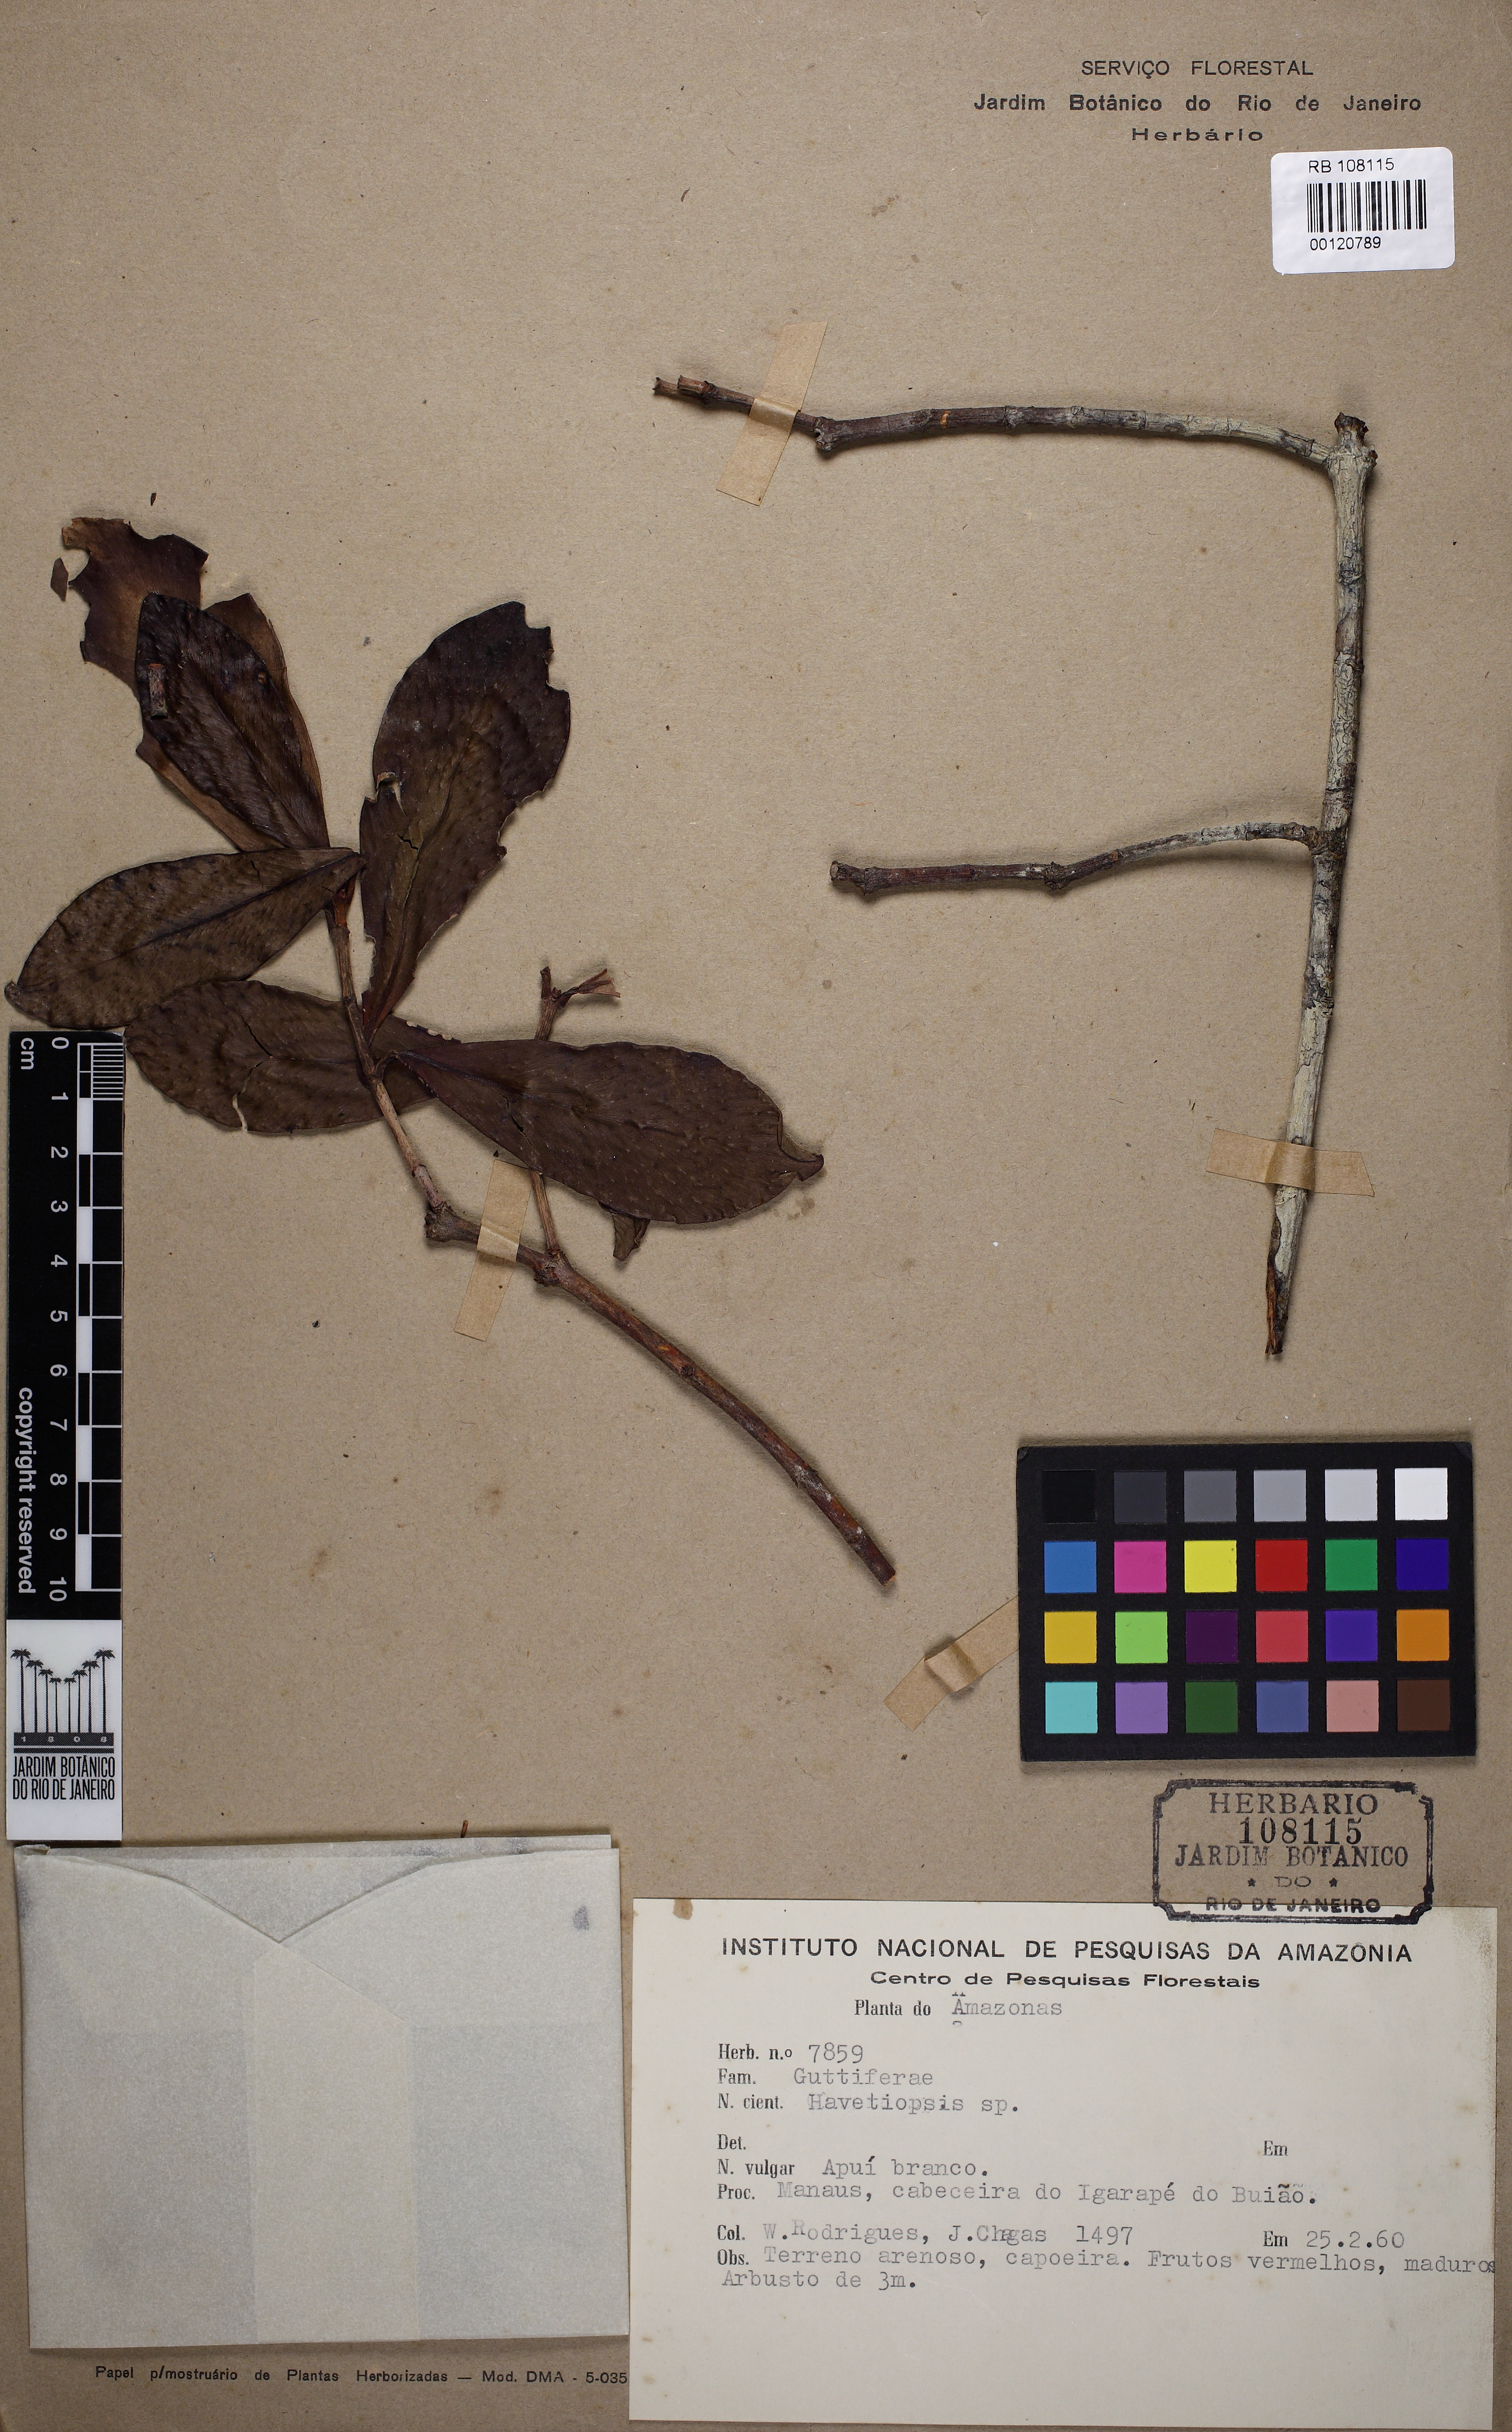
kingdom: Plantae
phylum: Tracheophyta
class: Magnoliopsida
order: Malpighiales
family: Clusiaceae
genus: Havetiopsis
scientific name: Havetiopsis
